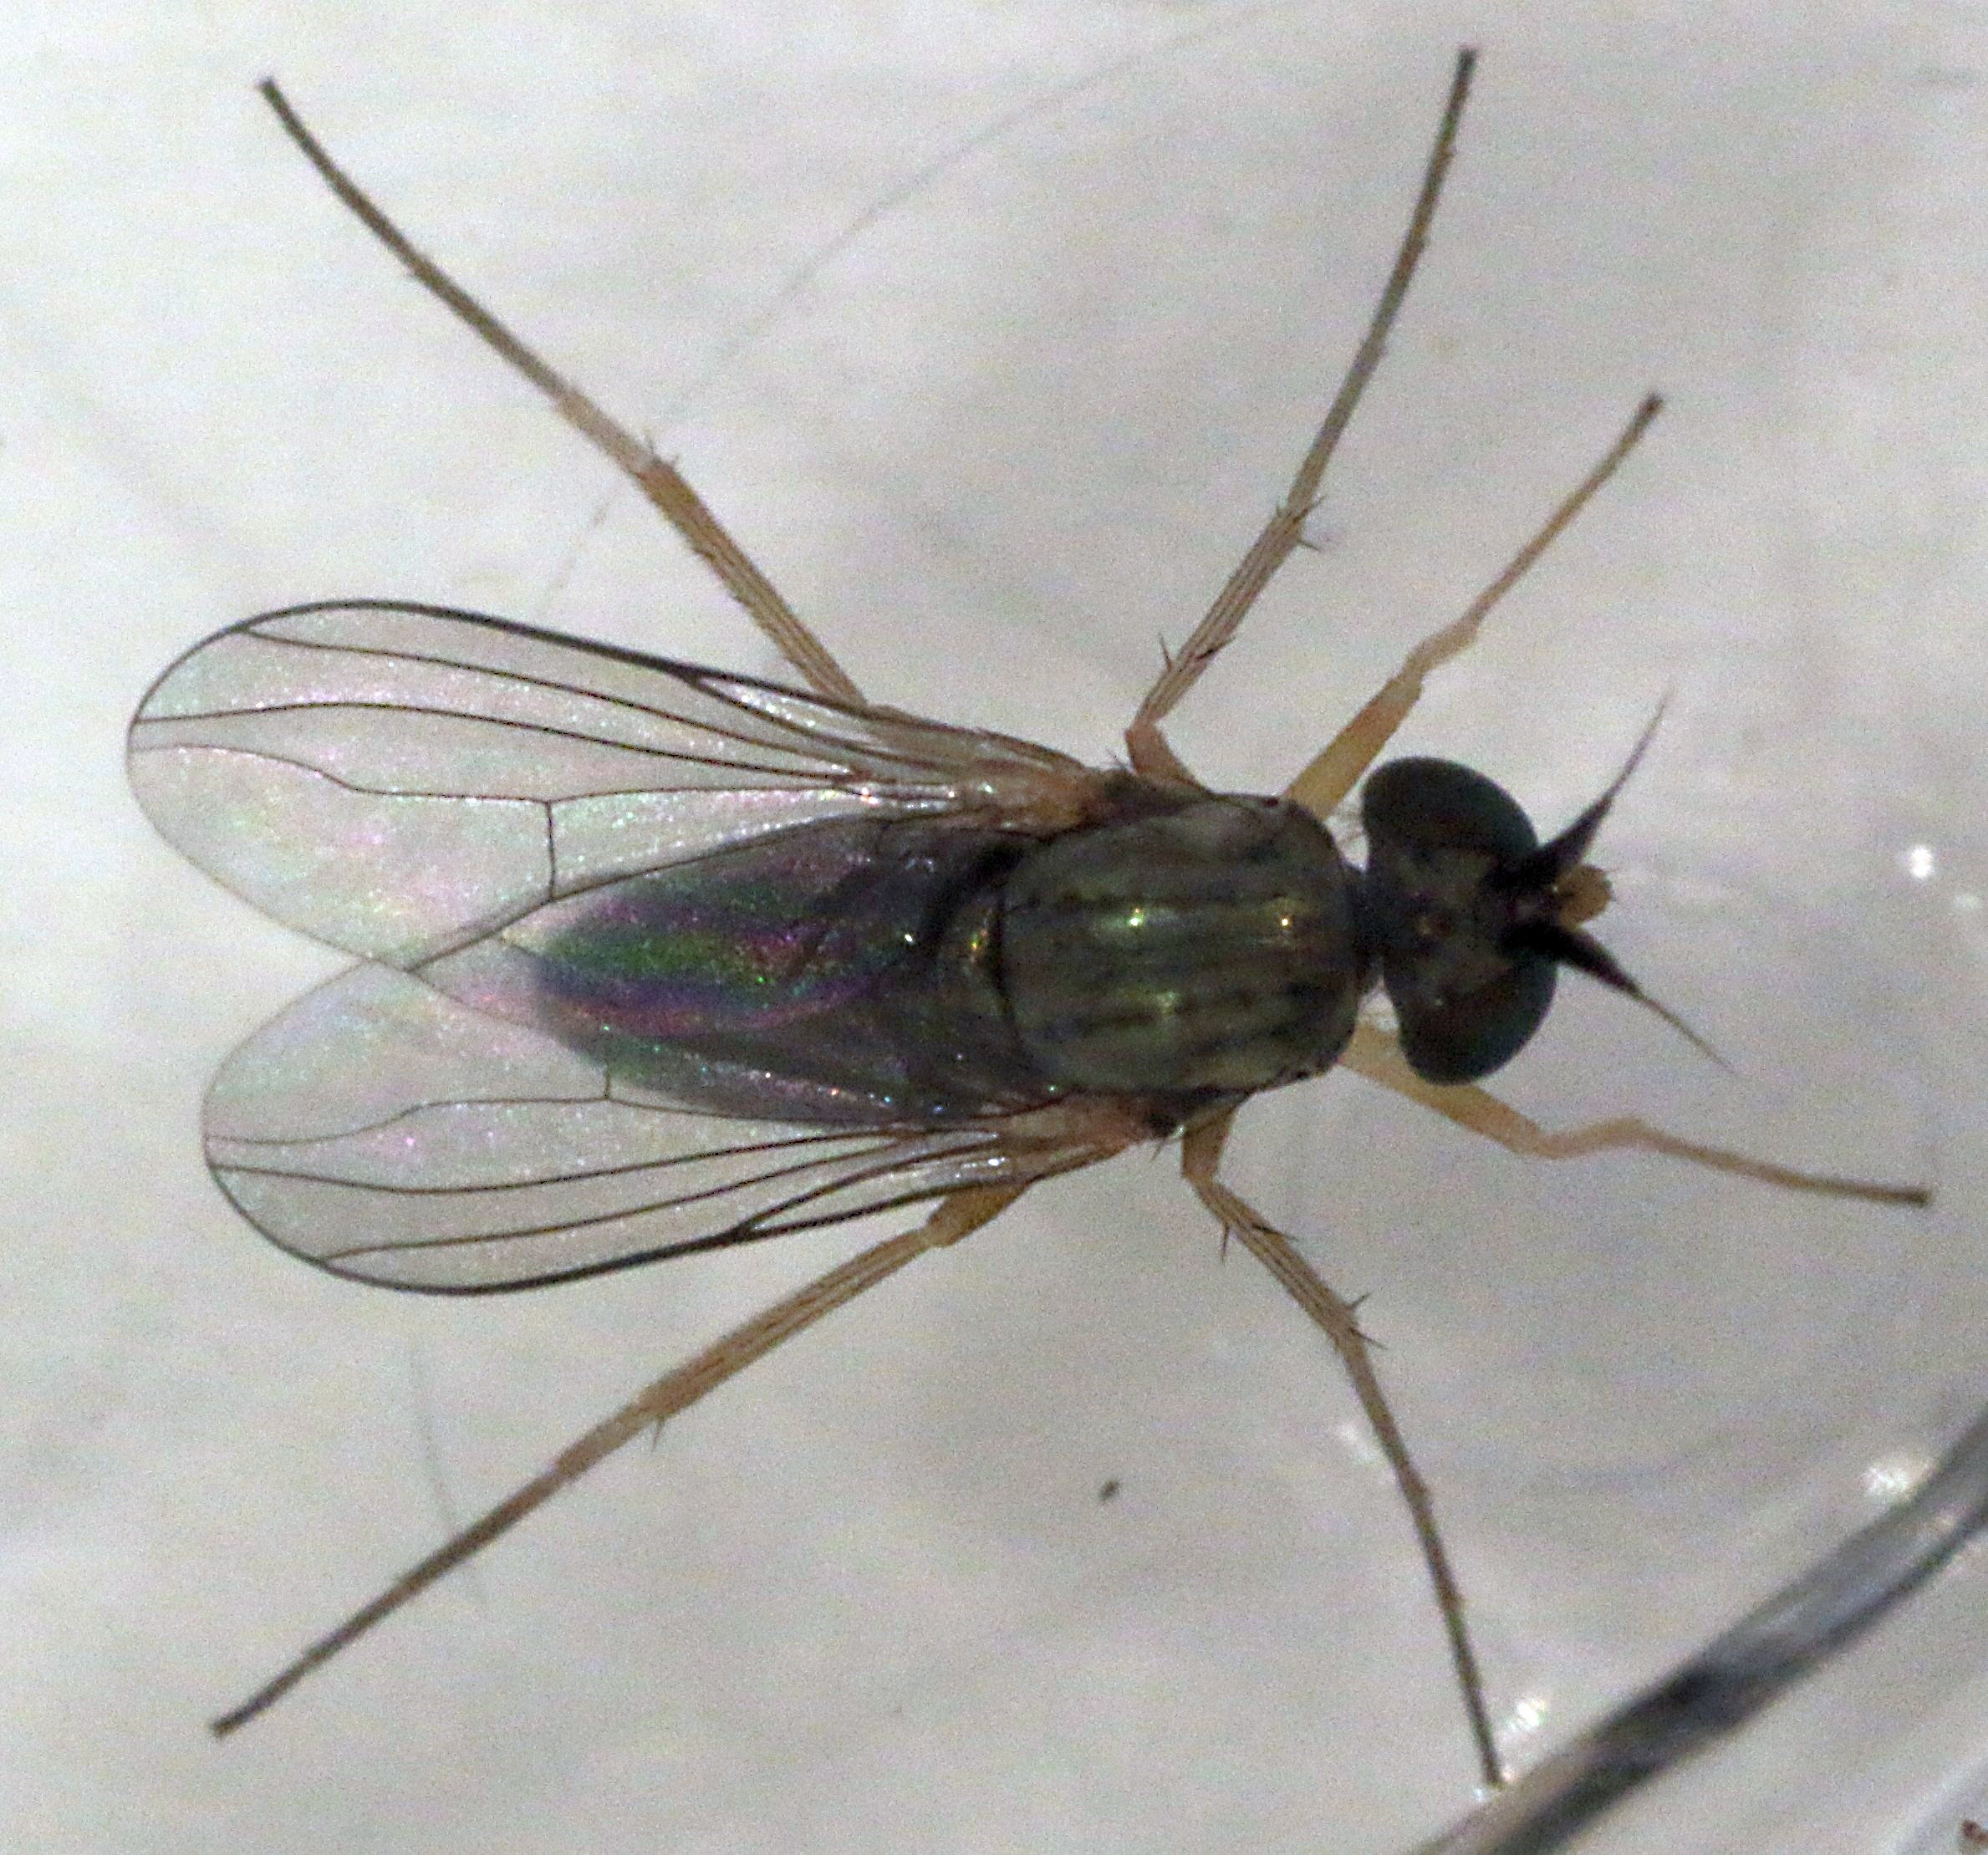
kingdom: Animalia
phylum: Arthropoda
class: Insecta
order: Diptera
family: Dolichopodidae
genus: Systenus
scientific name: Systenus pallipes
